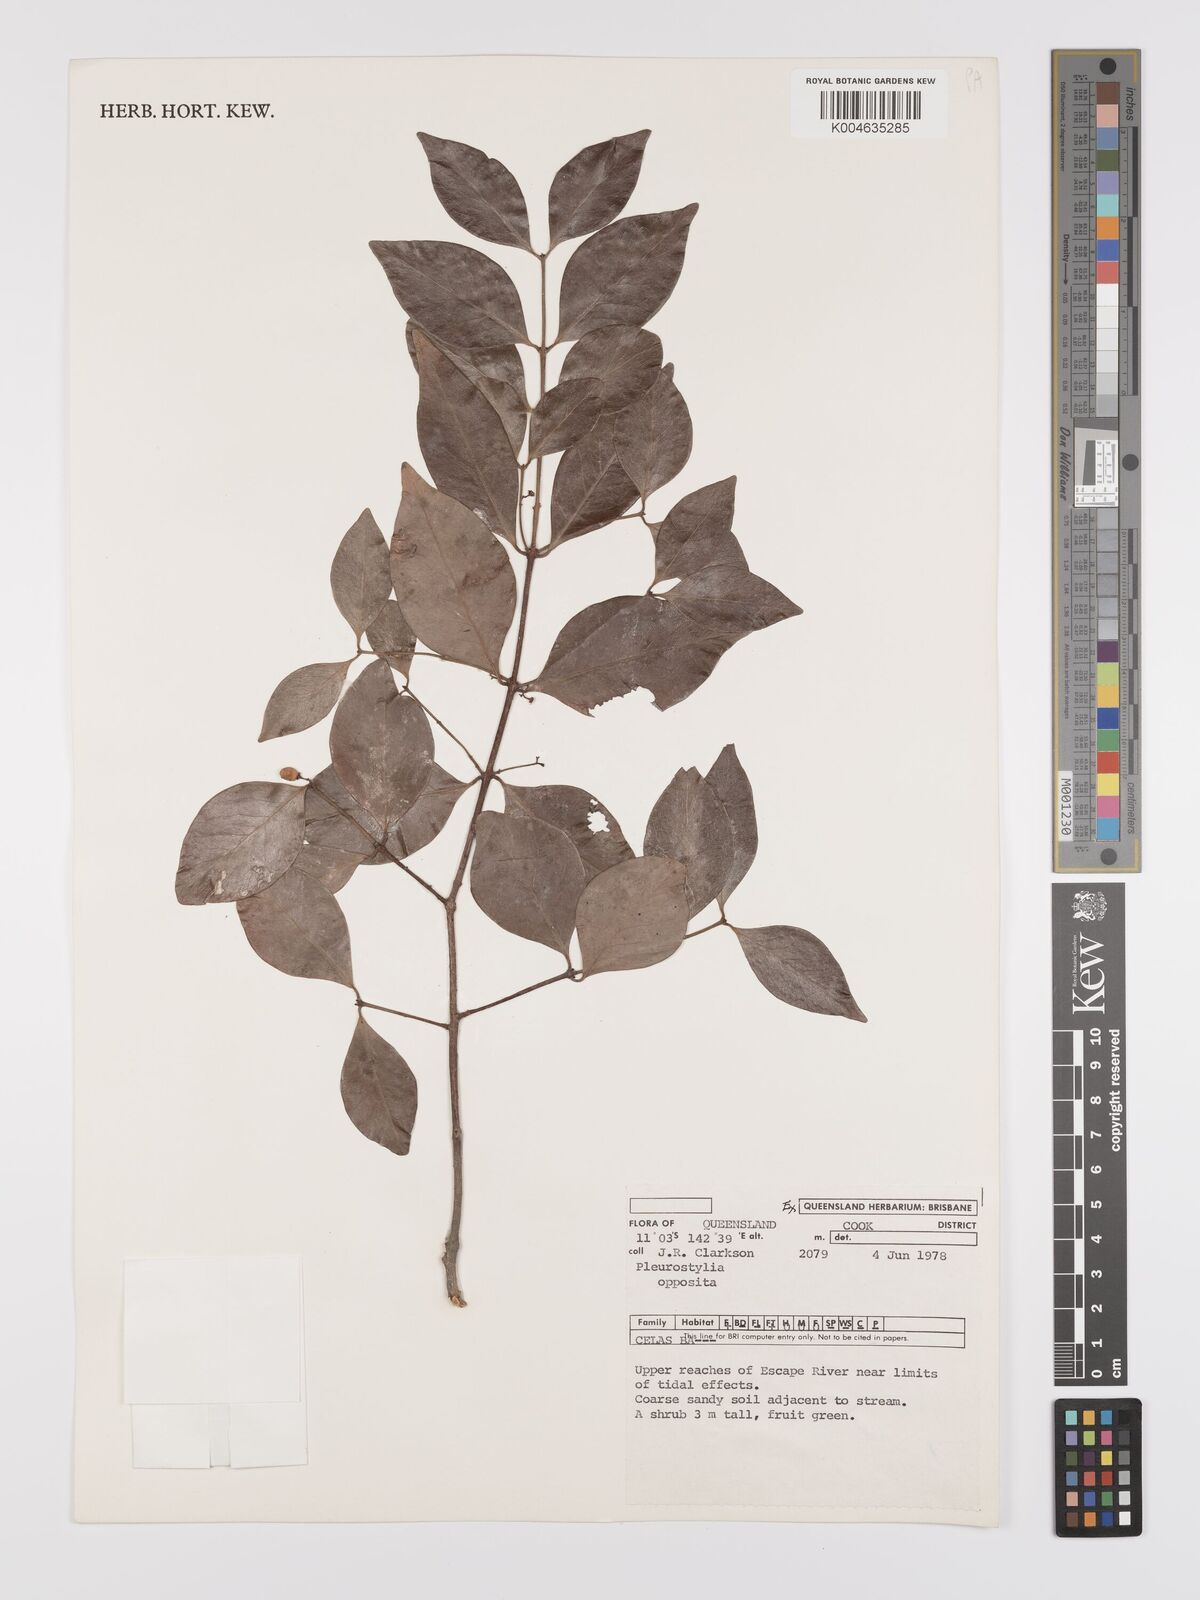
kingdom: Plantae
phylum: Tracheophyta
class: Magnoliopsida
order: Celastrales
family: Celastraceae
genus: Pleurostylia
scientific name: Pleurostylia opposita
